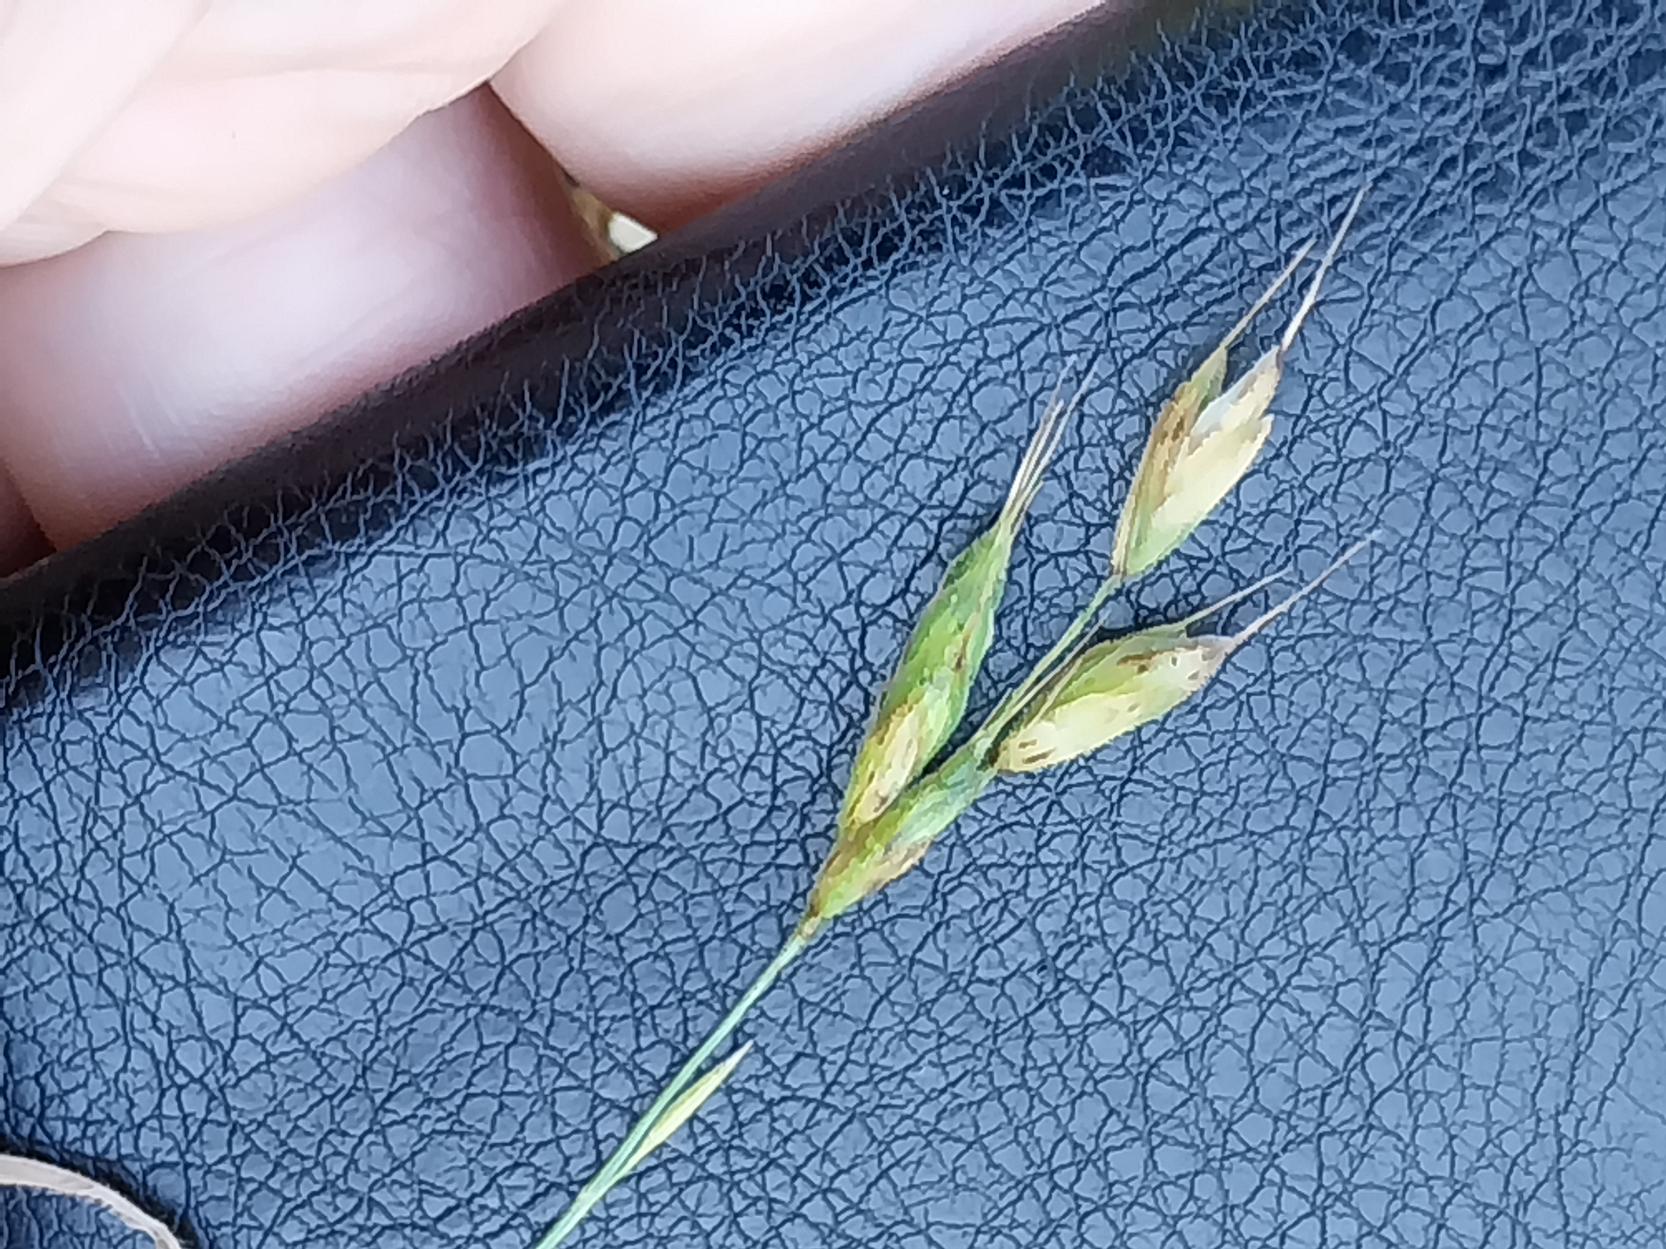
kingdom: Plantae
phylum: Tracheophyta
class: Liliopsida
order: Poales
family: Poaceae
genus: Bromus
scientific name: Bromus hordeaceus
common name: Blød hejre
